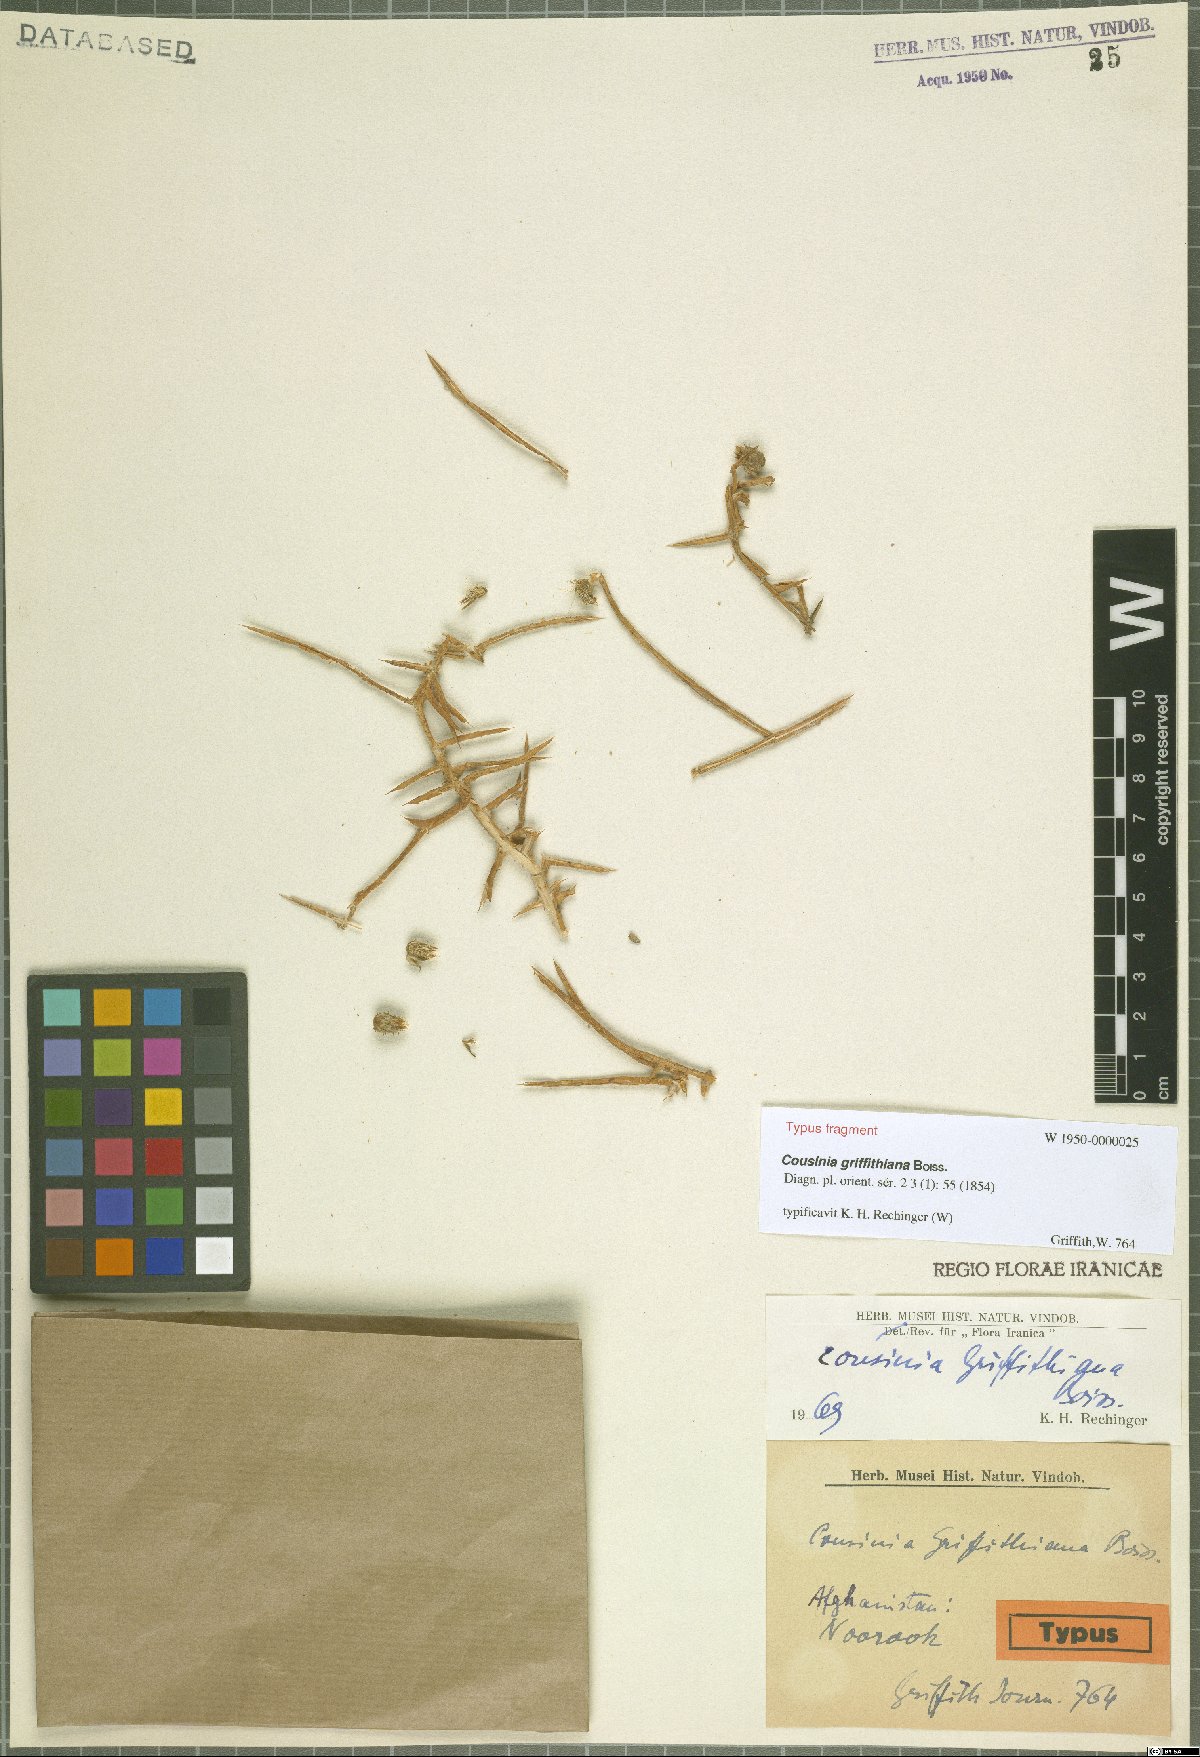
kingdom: Plantae
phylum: Tracheophyta
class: Magnoliopsida
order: Asterales
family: Asteraceae
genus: Cousinia
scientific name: Cousinia griffithiana
